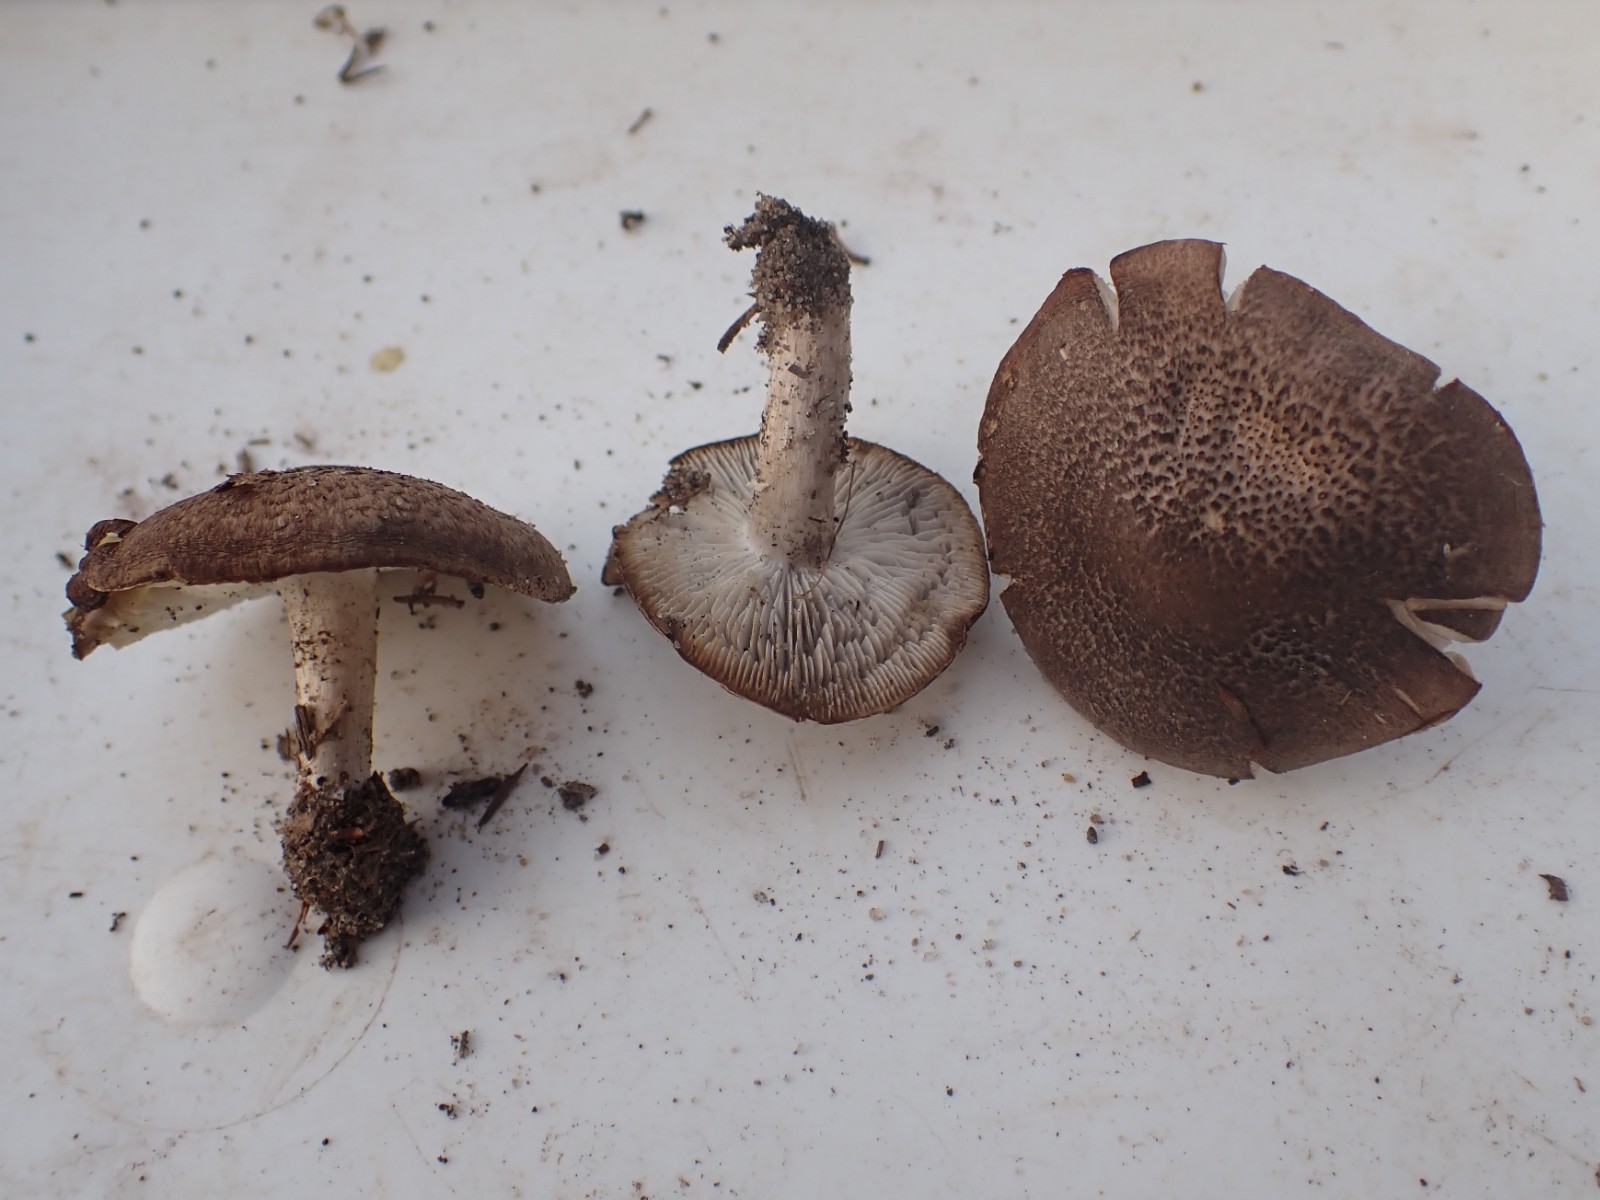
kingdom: Fungi
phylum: Basidiomycota
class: Agaricomycetes
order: Agaricales
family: Tricholomataceae
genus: Tricholoma
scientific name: Tricholoma scalpturatum
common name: gulplettet ridderhat
